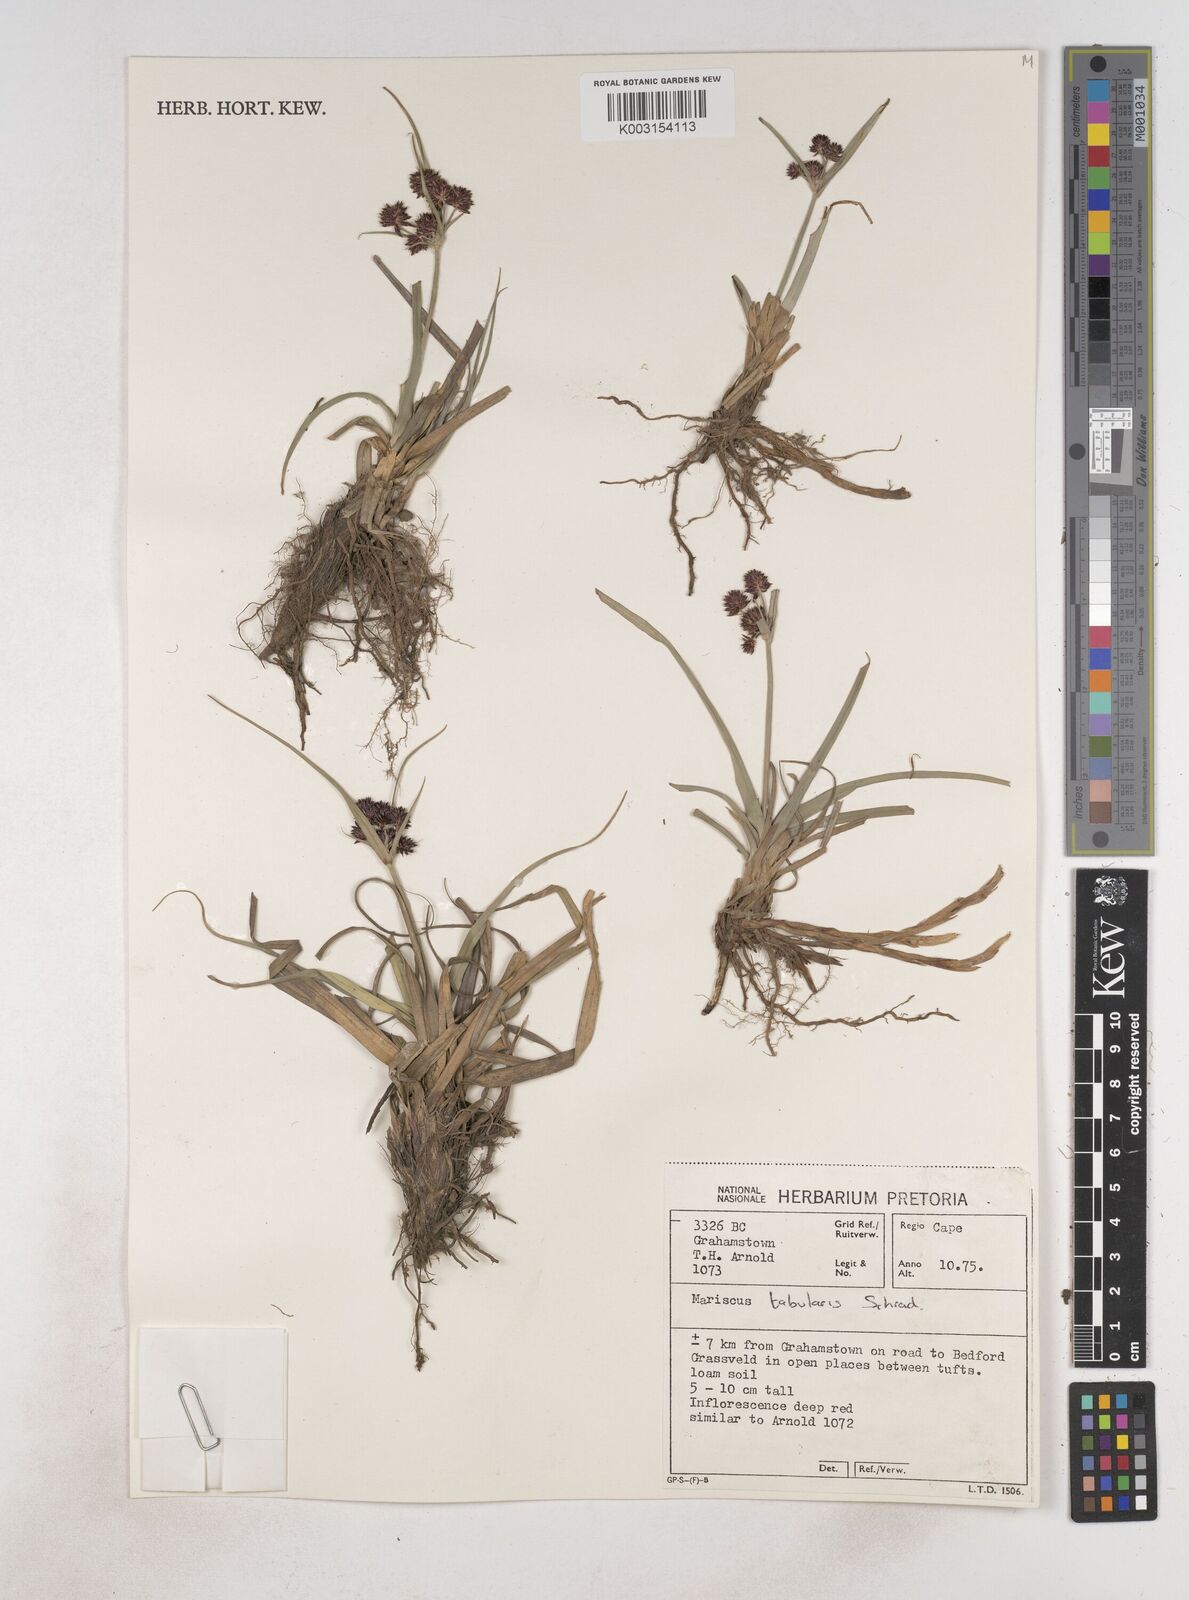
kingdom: Plantae
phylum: Tracheophyta
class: Liliopsida
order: Poales
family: Cyperaceae
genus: Cyperus
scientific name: Cyperus tabularis
